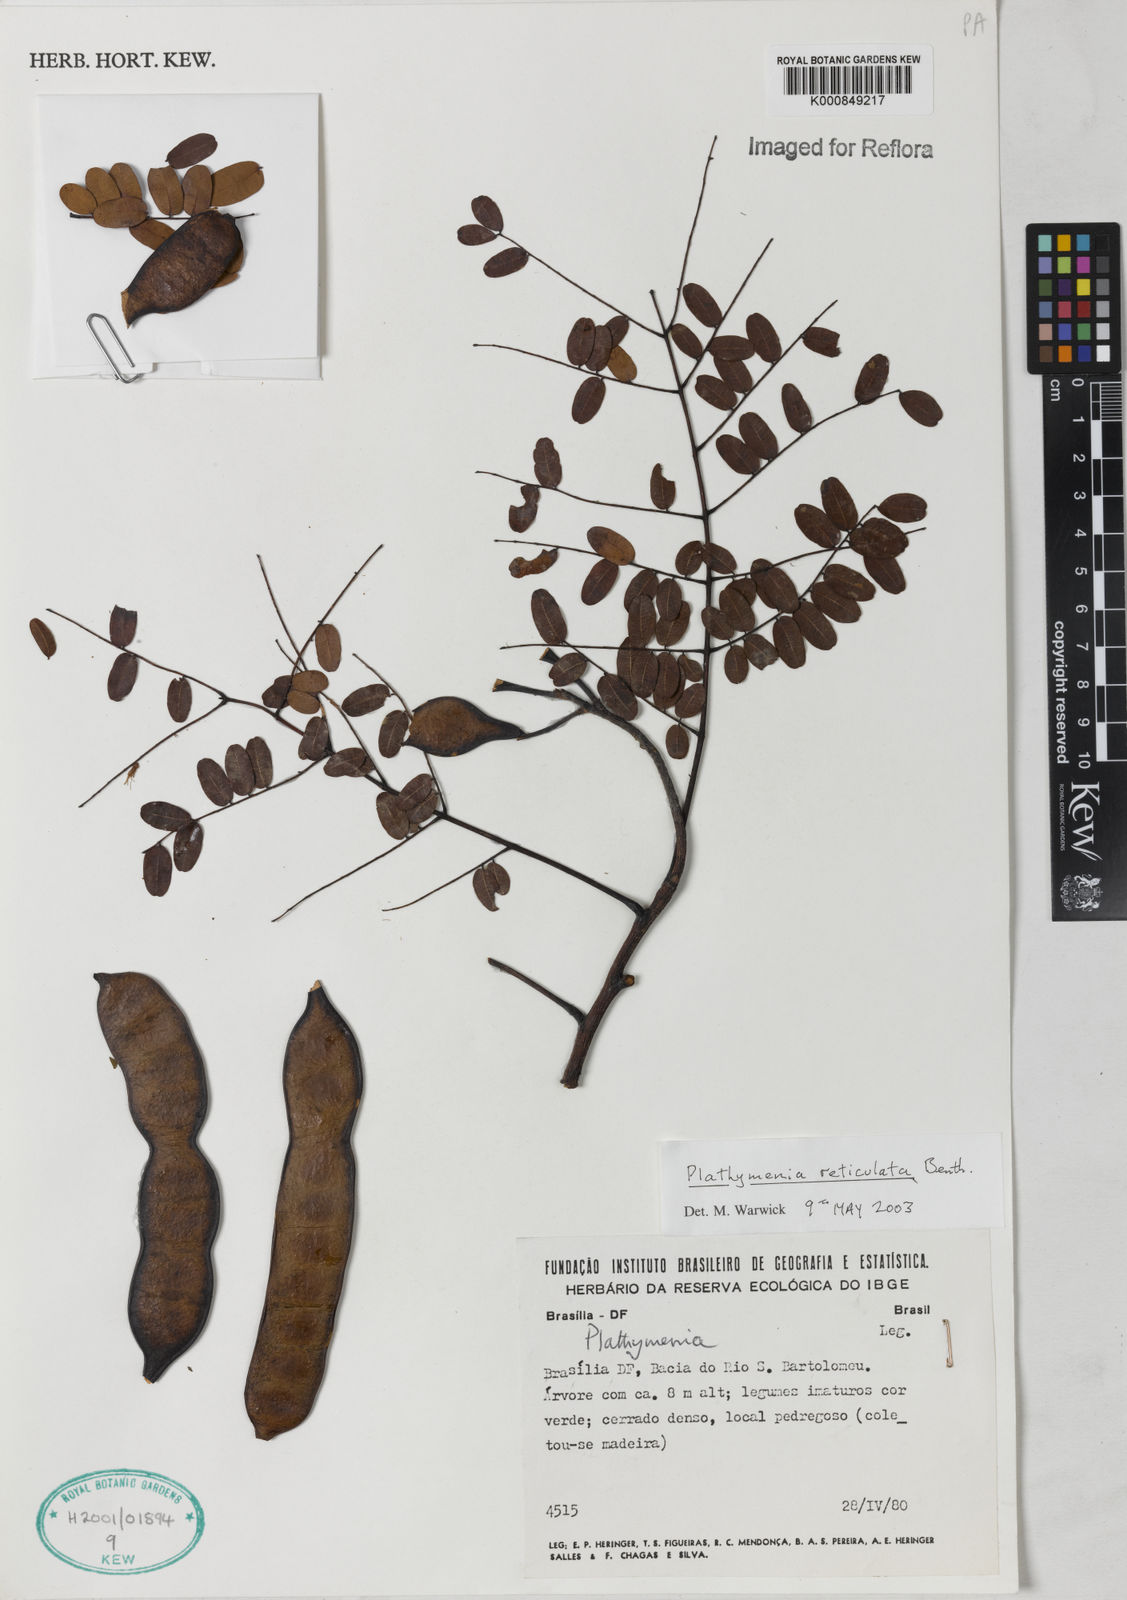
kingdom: Plantae
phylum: Tracheophyta
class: Magnoliopsida
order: Fabales
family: Fabaceae
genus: Plathymenia
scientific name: Plathymenia reticulata
